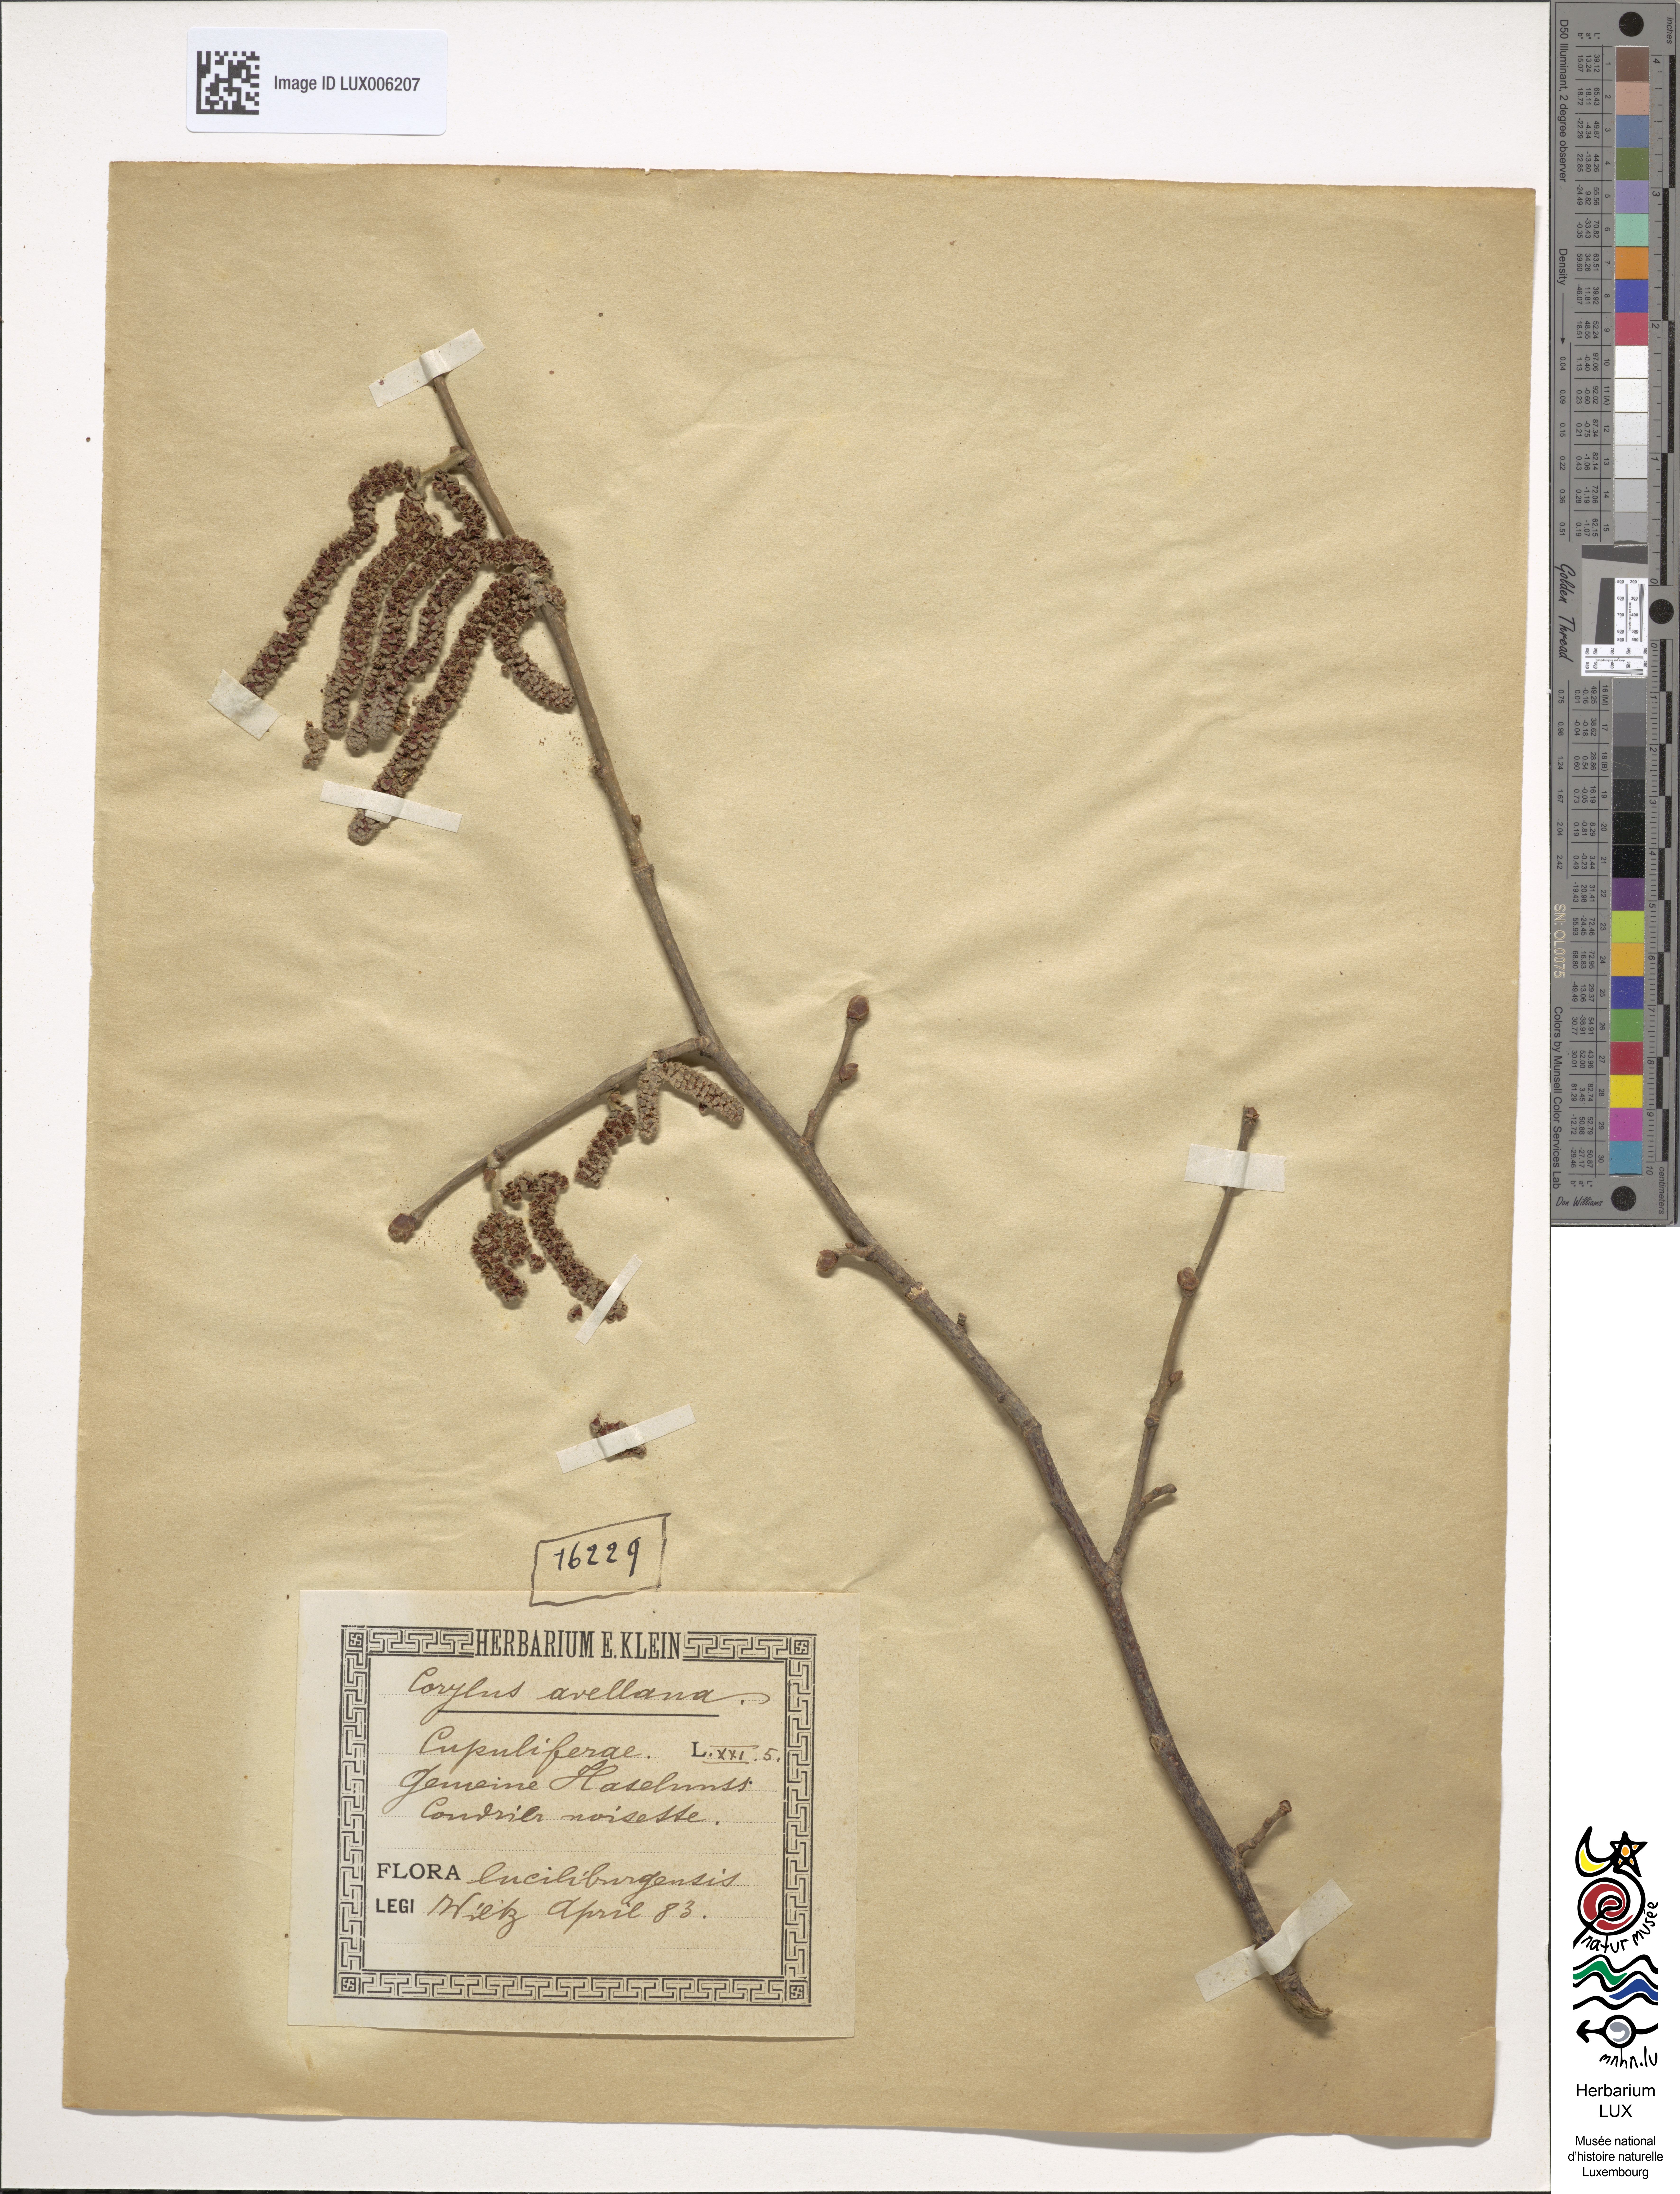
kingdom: Plantae
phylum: Tracheophyta
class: Magnoliopsida
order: Fagales
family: Betulaceae
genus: Corylus
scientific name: Corylus avellana
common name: European hazel
